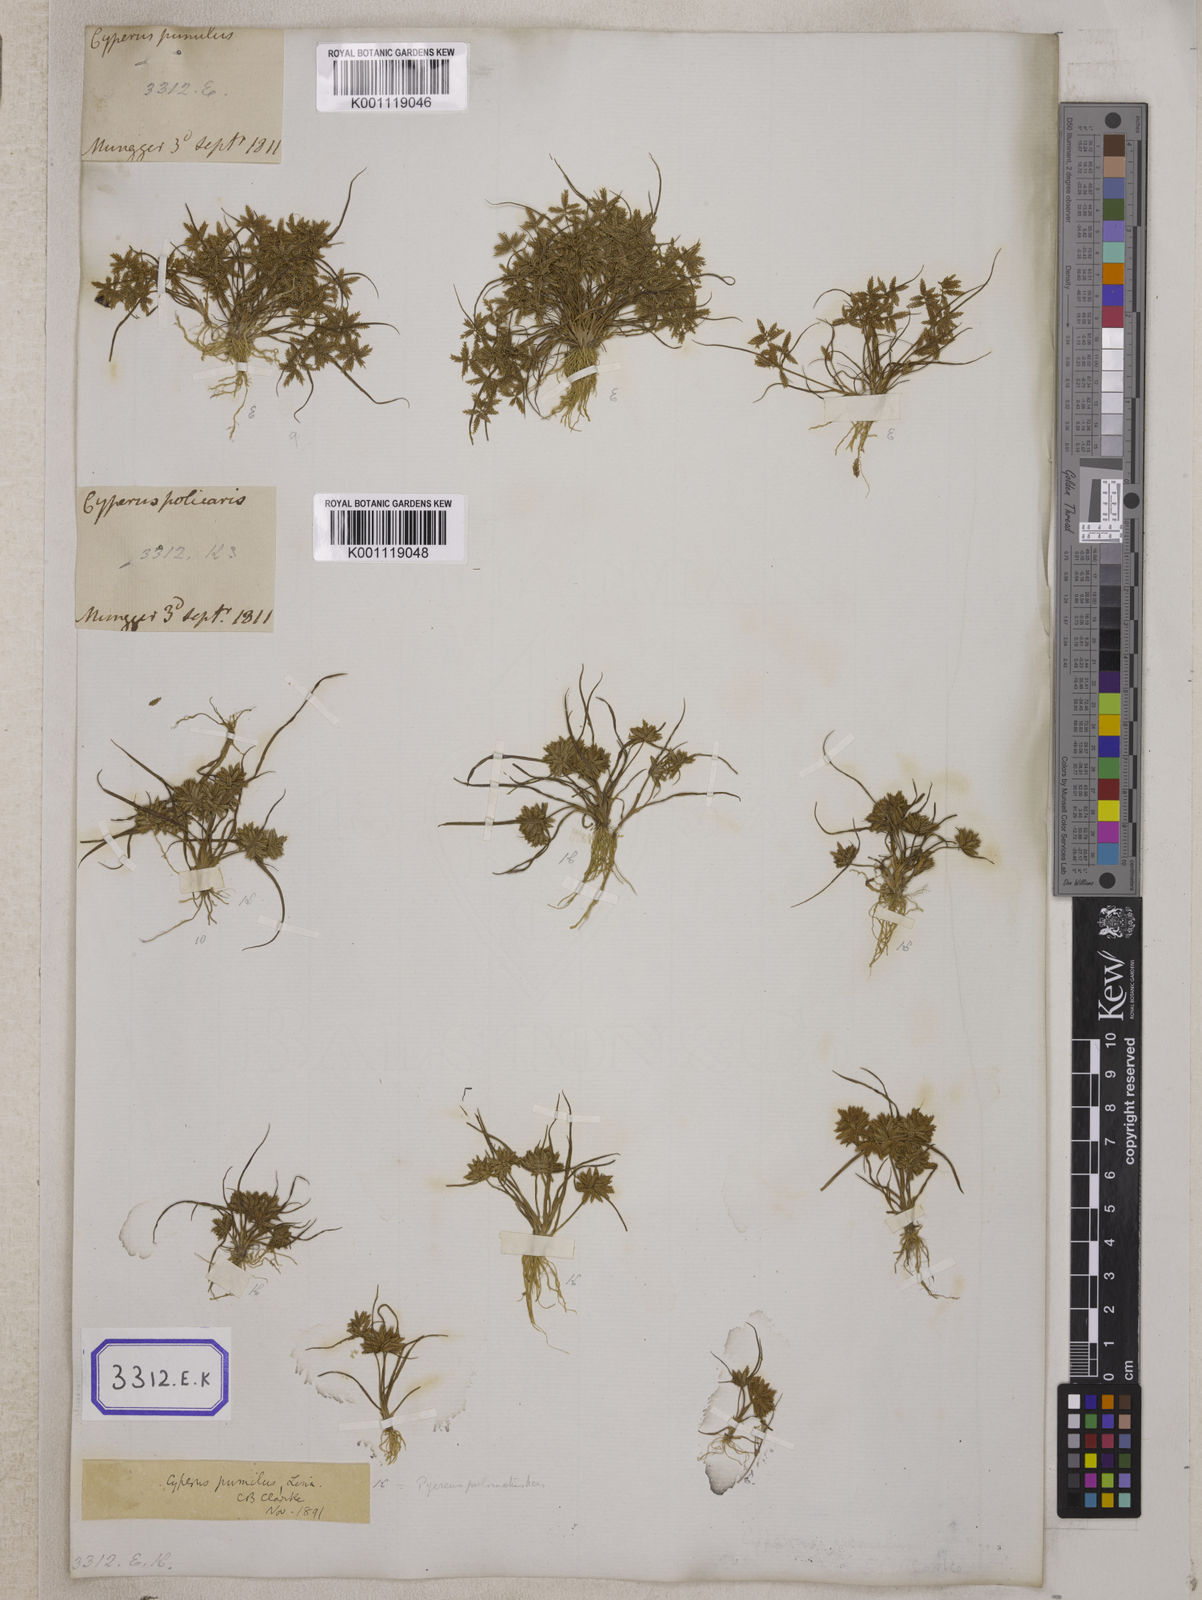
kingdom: Plantae
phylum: Tracheophyta
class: Liliopsida
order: Poales
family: Cyperaceae
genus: Cyperus
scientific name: Cyperus
